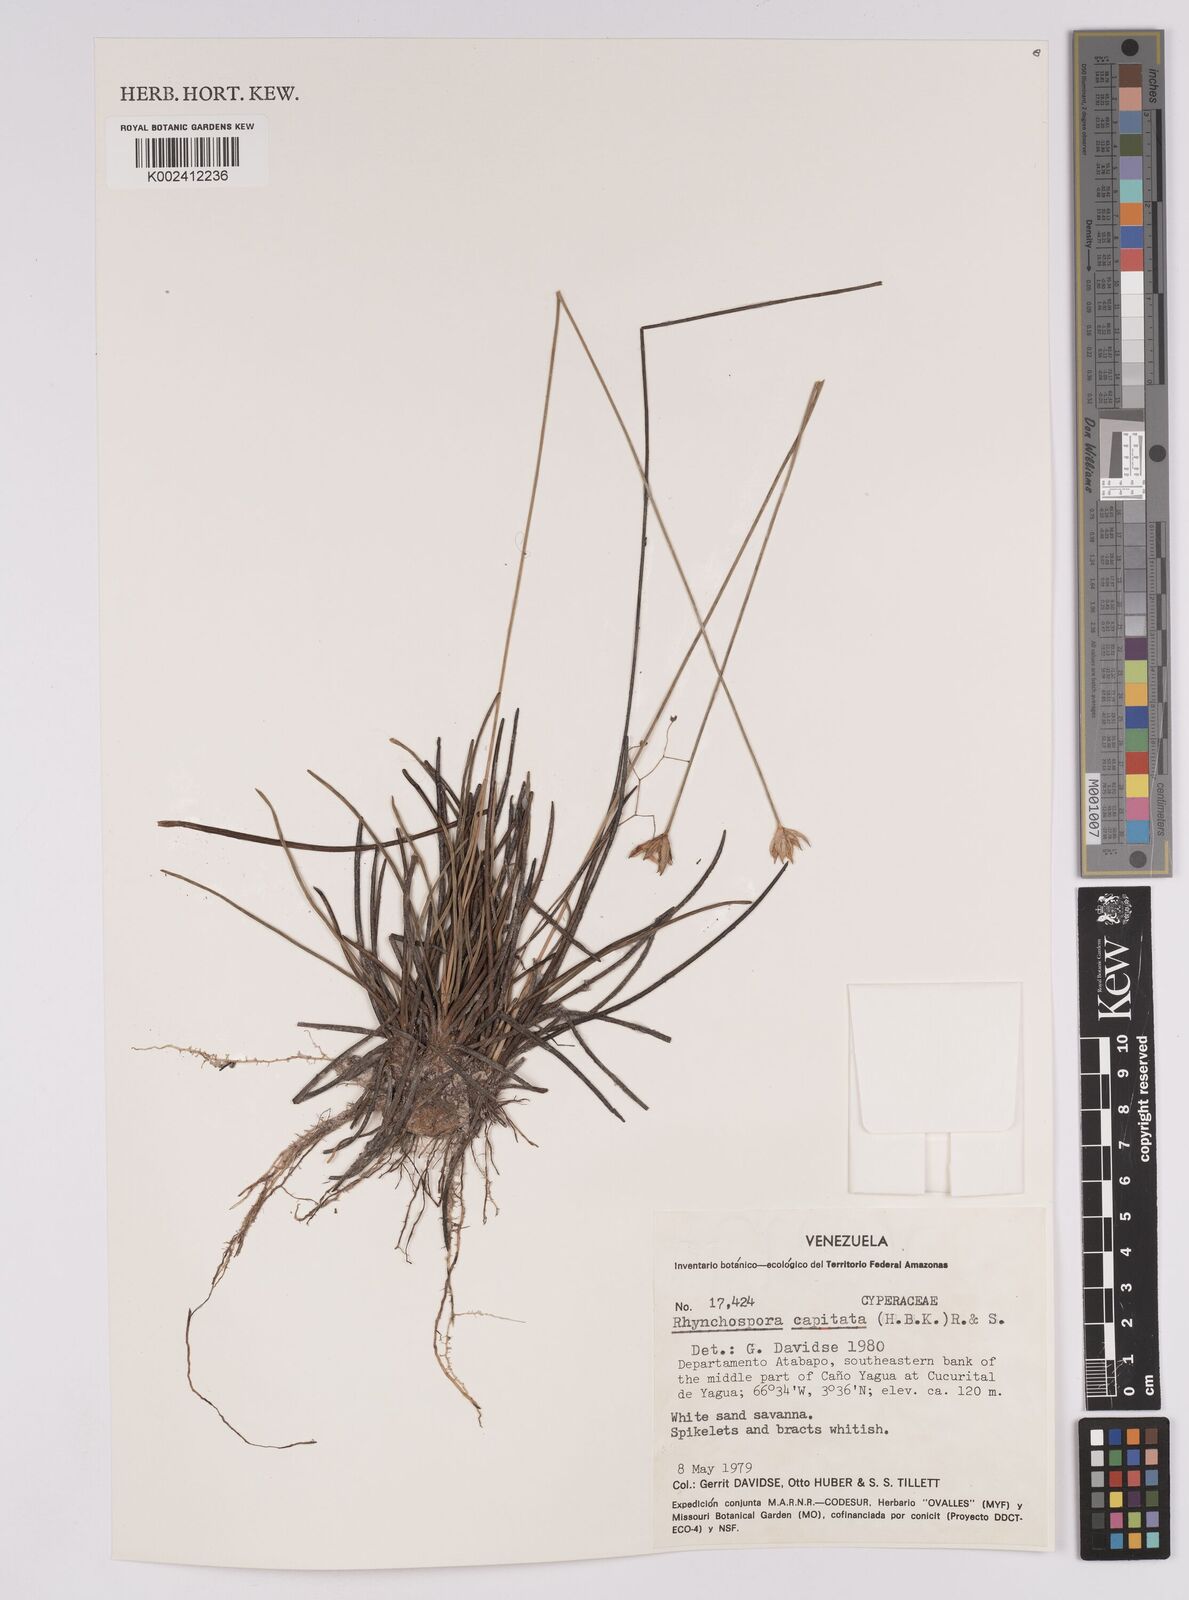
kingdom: Plantae
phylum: Tracheophyta
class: Liliopsida
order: Poales
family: Cyperaceae
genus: Rhynchospora
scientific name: Rhynchospora capitata
